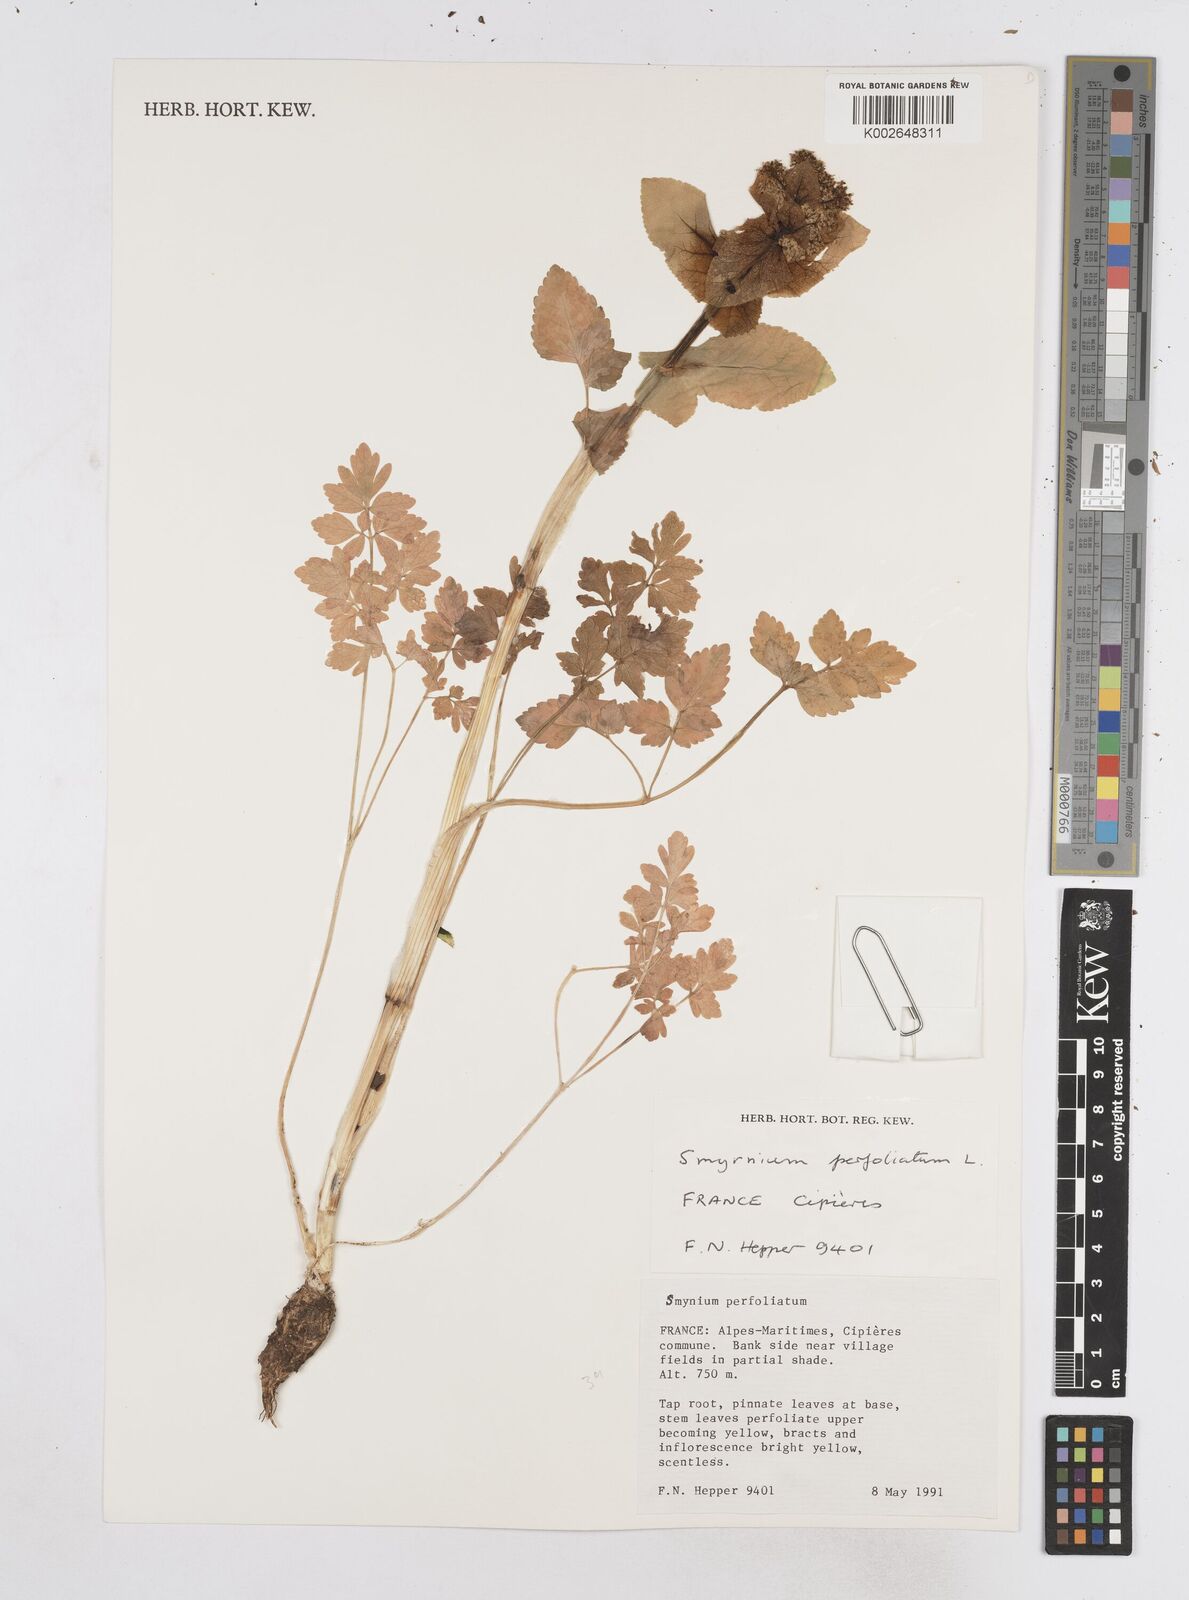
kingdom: Plantae
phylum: Tracheophyta
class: Magnoliopsida
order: Apiales
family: Apiaceae
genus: Smyrnium
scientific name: Smyrnium perfoliatum
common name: Perfoliate alexanders
